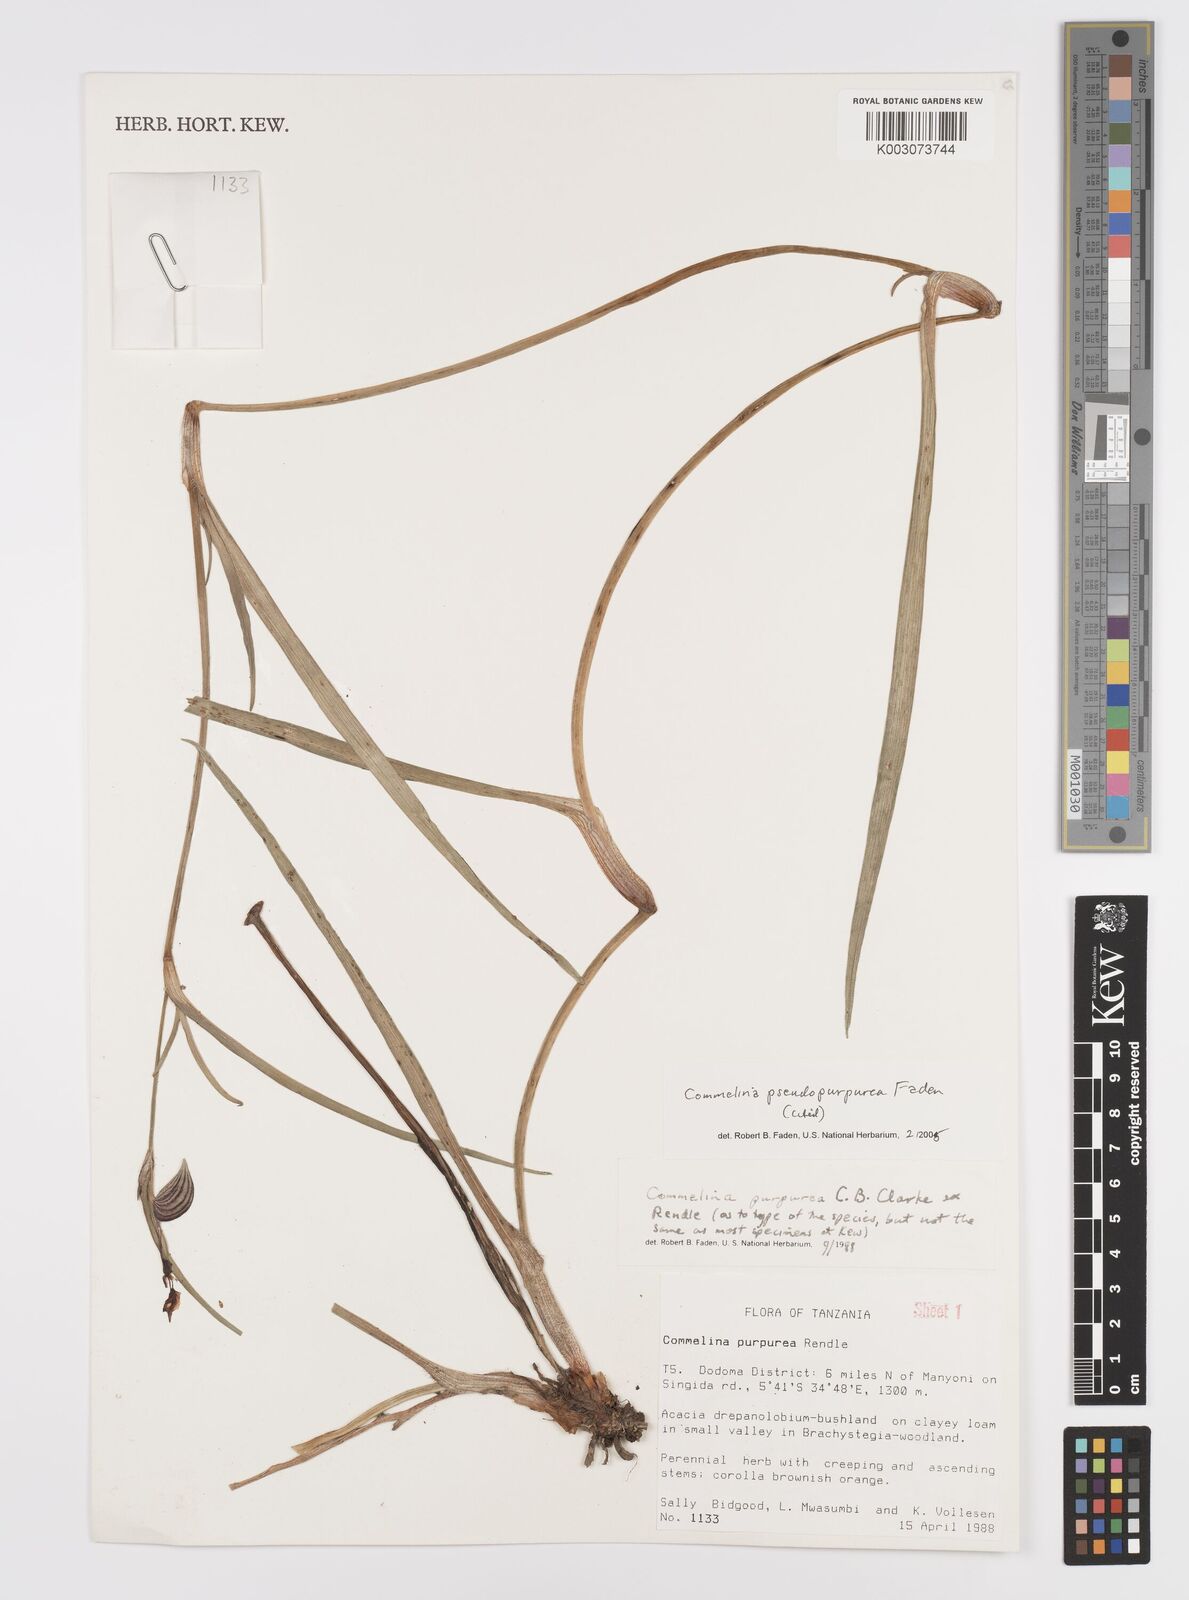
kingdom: Plantae
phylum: Tracheophyta
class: Liliopsida
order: Commelinales
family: Commelinaceae
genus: Commelina
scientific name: Commelina pseudopurpurea
